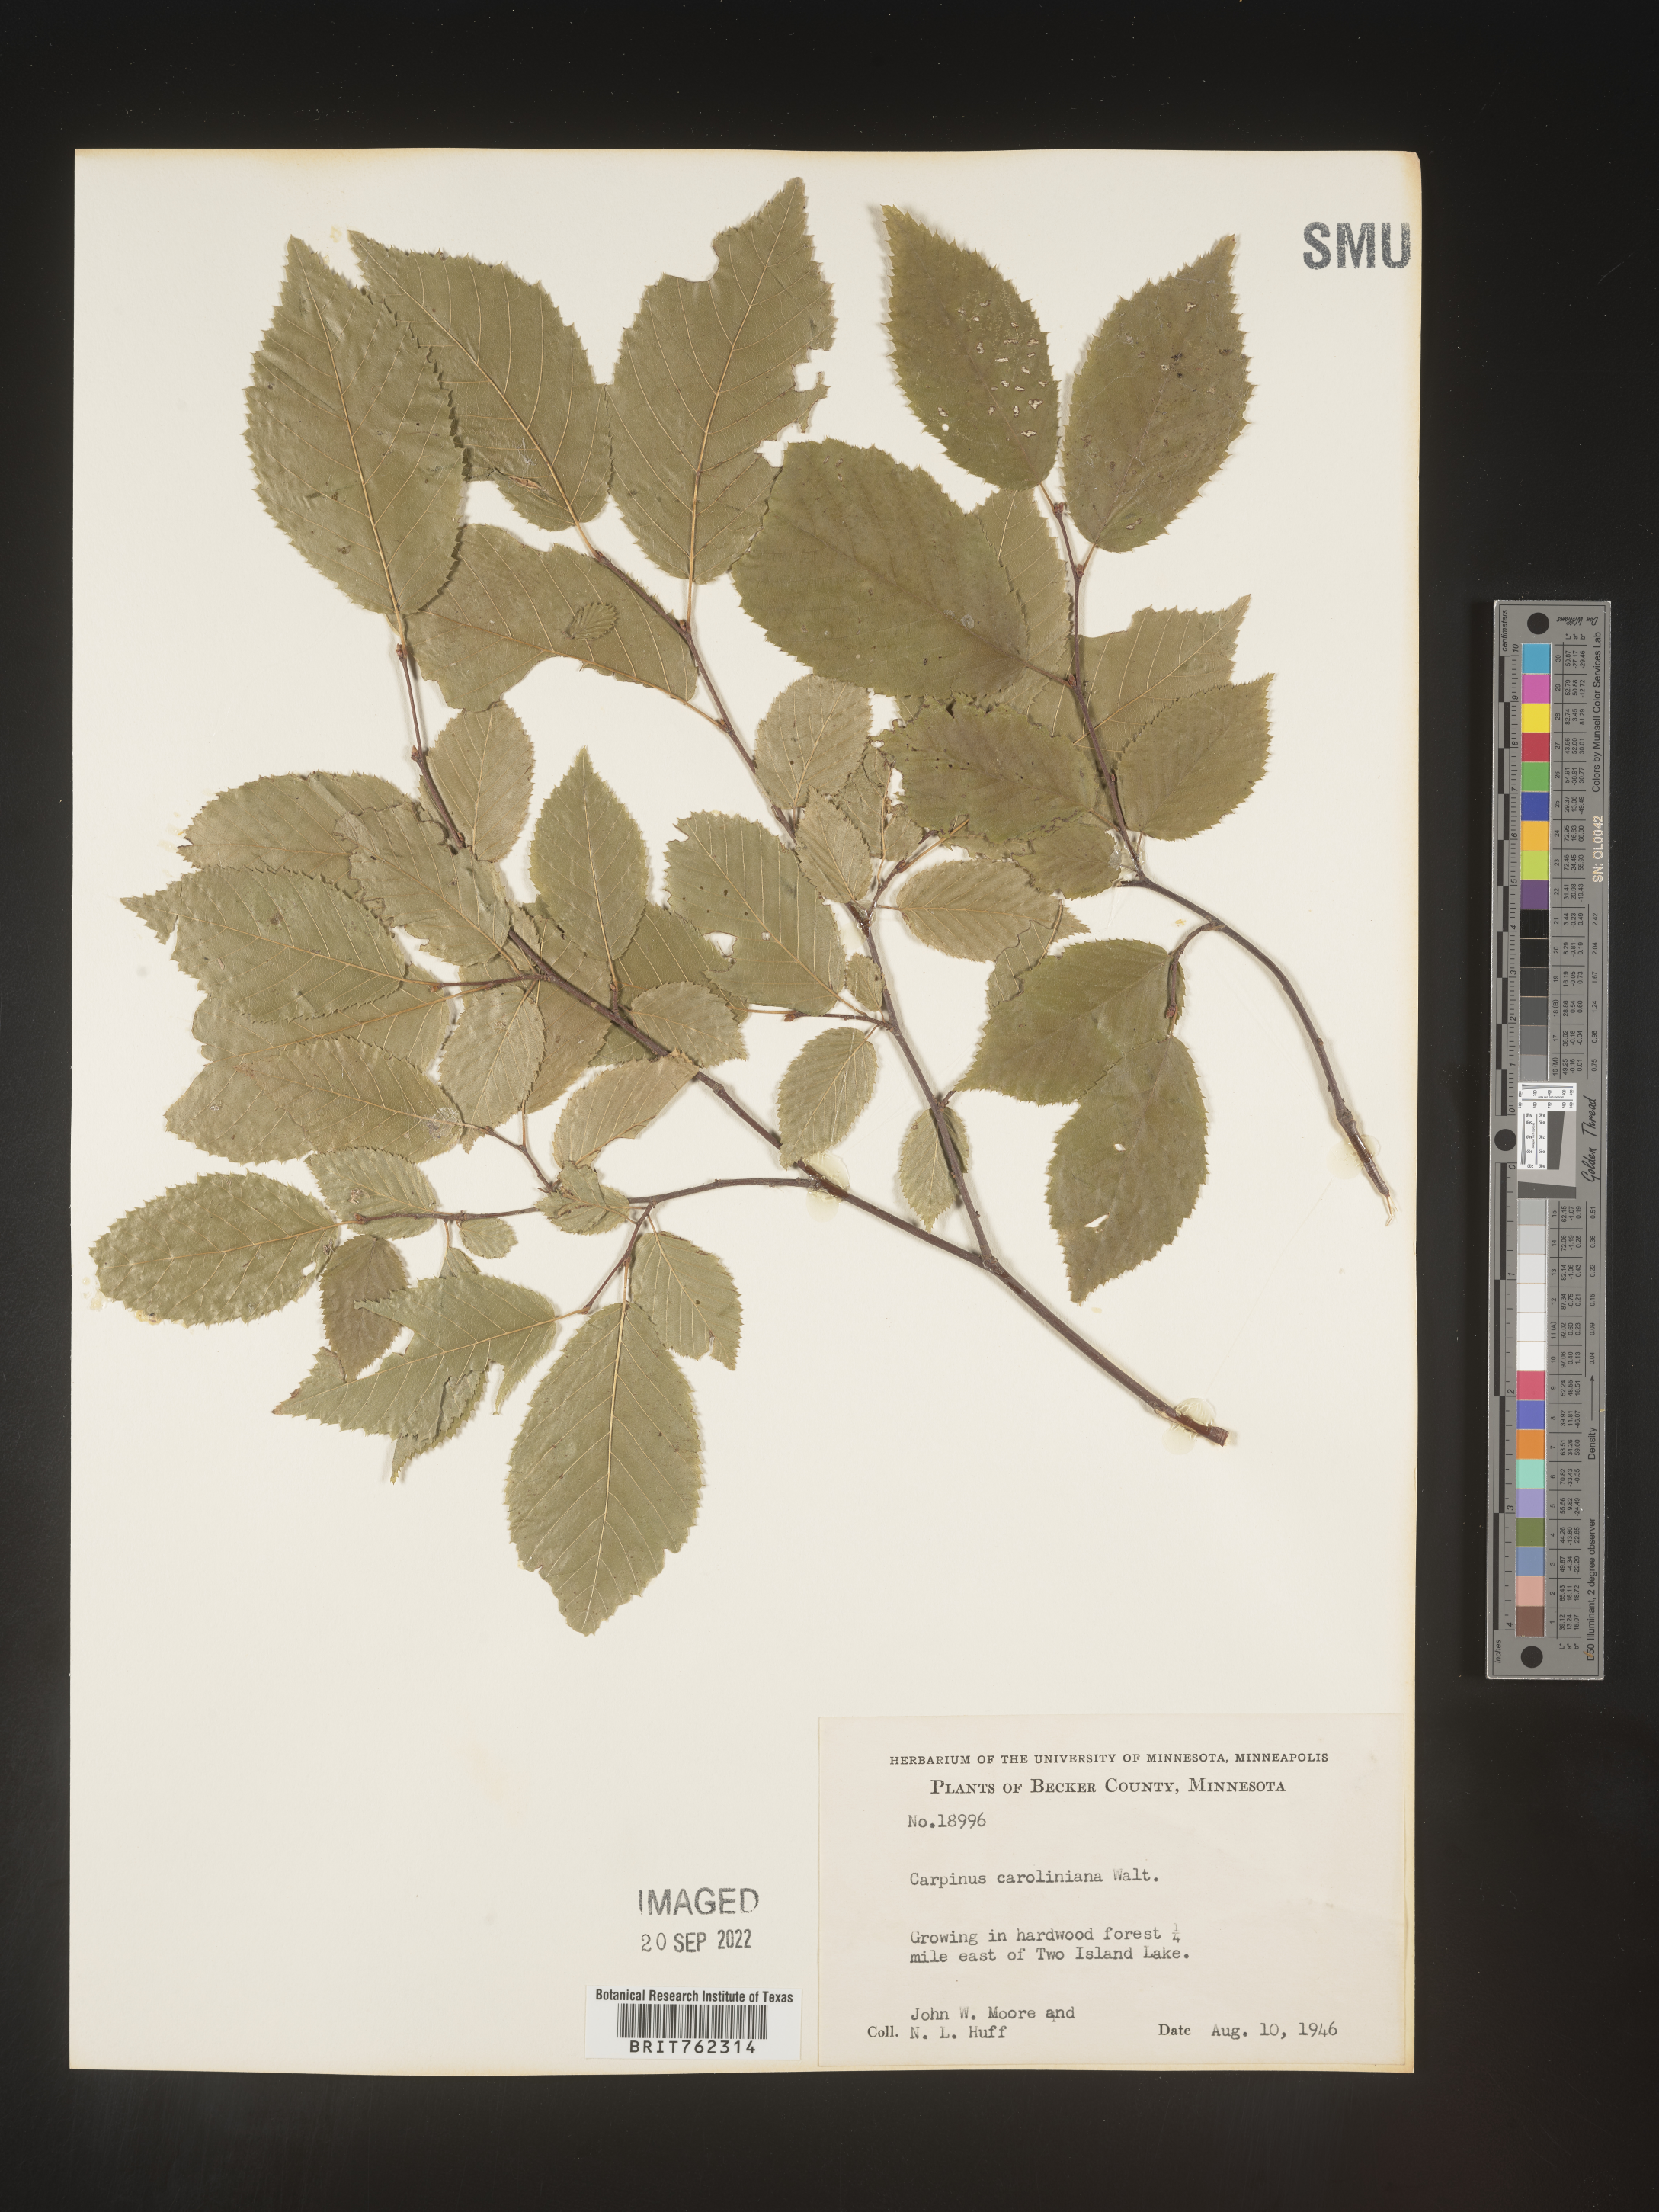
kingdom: Plantae
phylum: Tracheophyta
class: Magnoliopsida
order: Fagales
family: Betulaceae
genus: Carpinus
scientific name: Carpinus caroliniana
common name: American hornbeam
